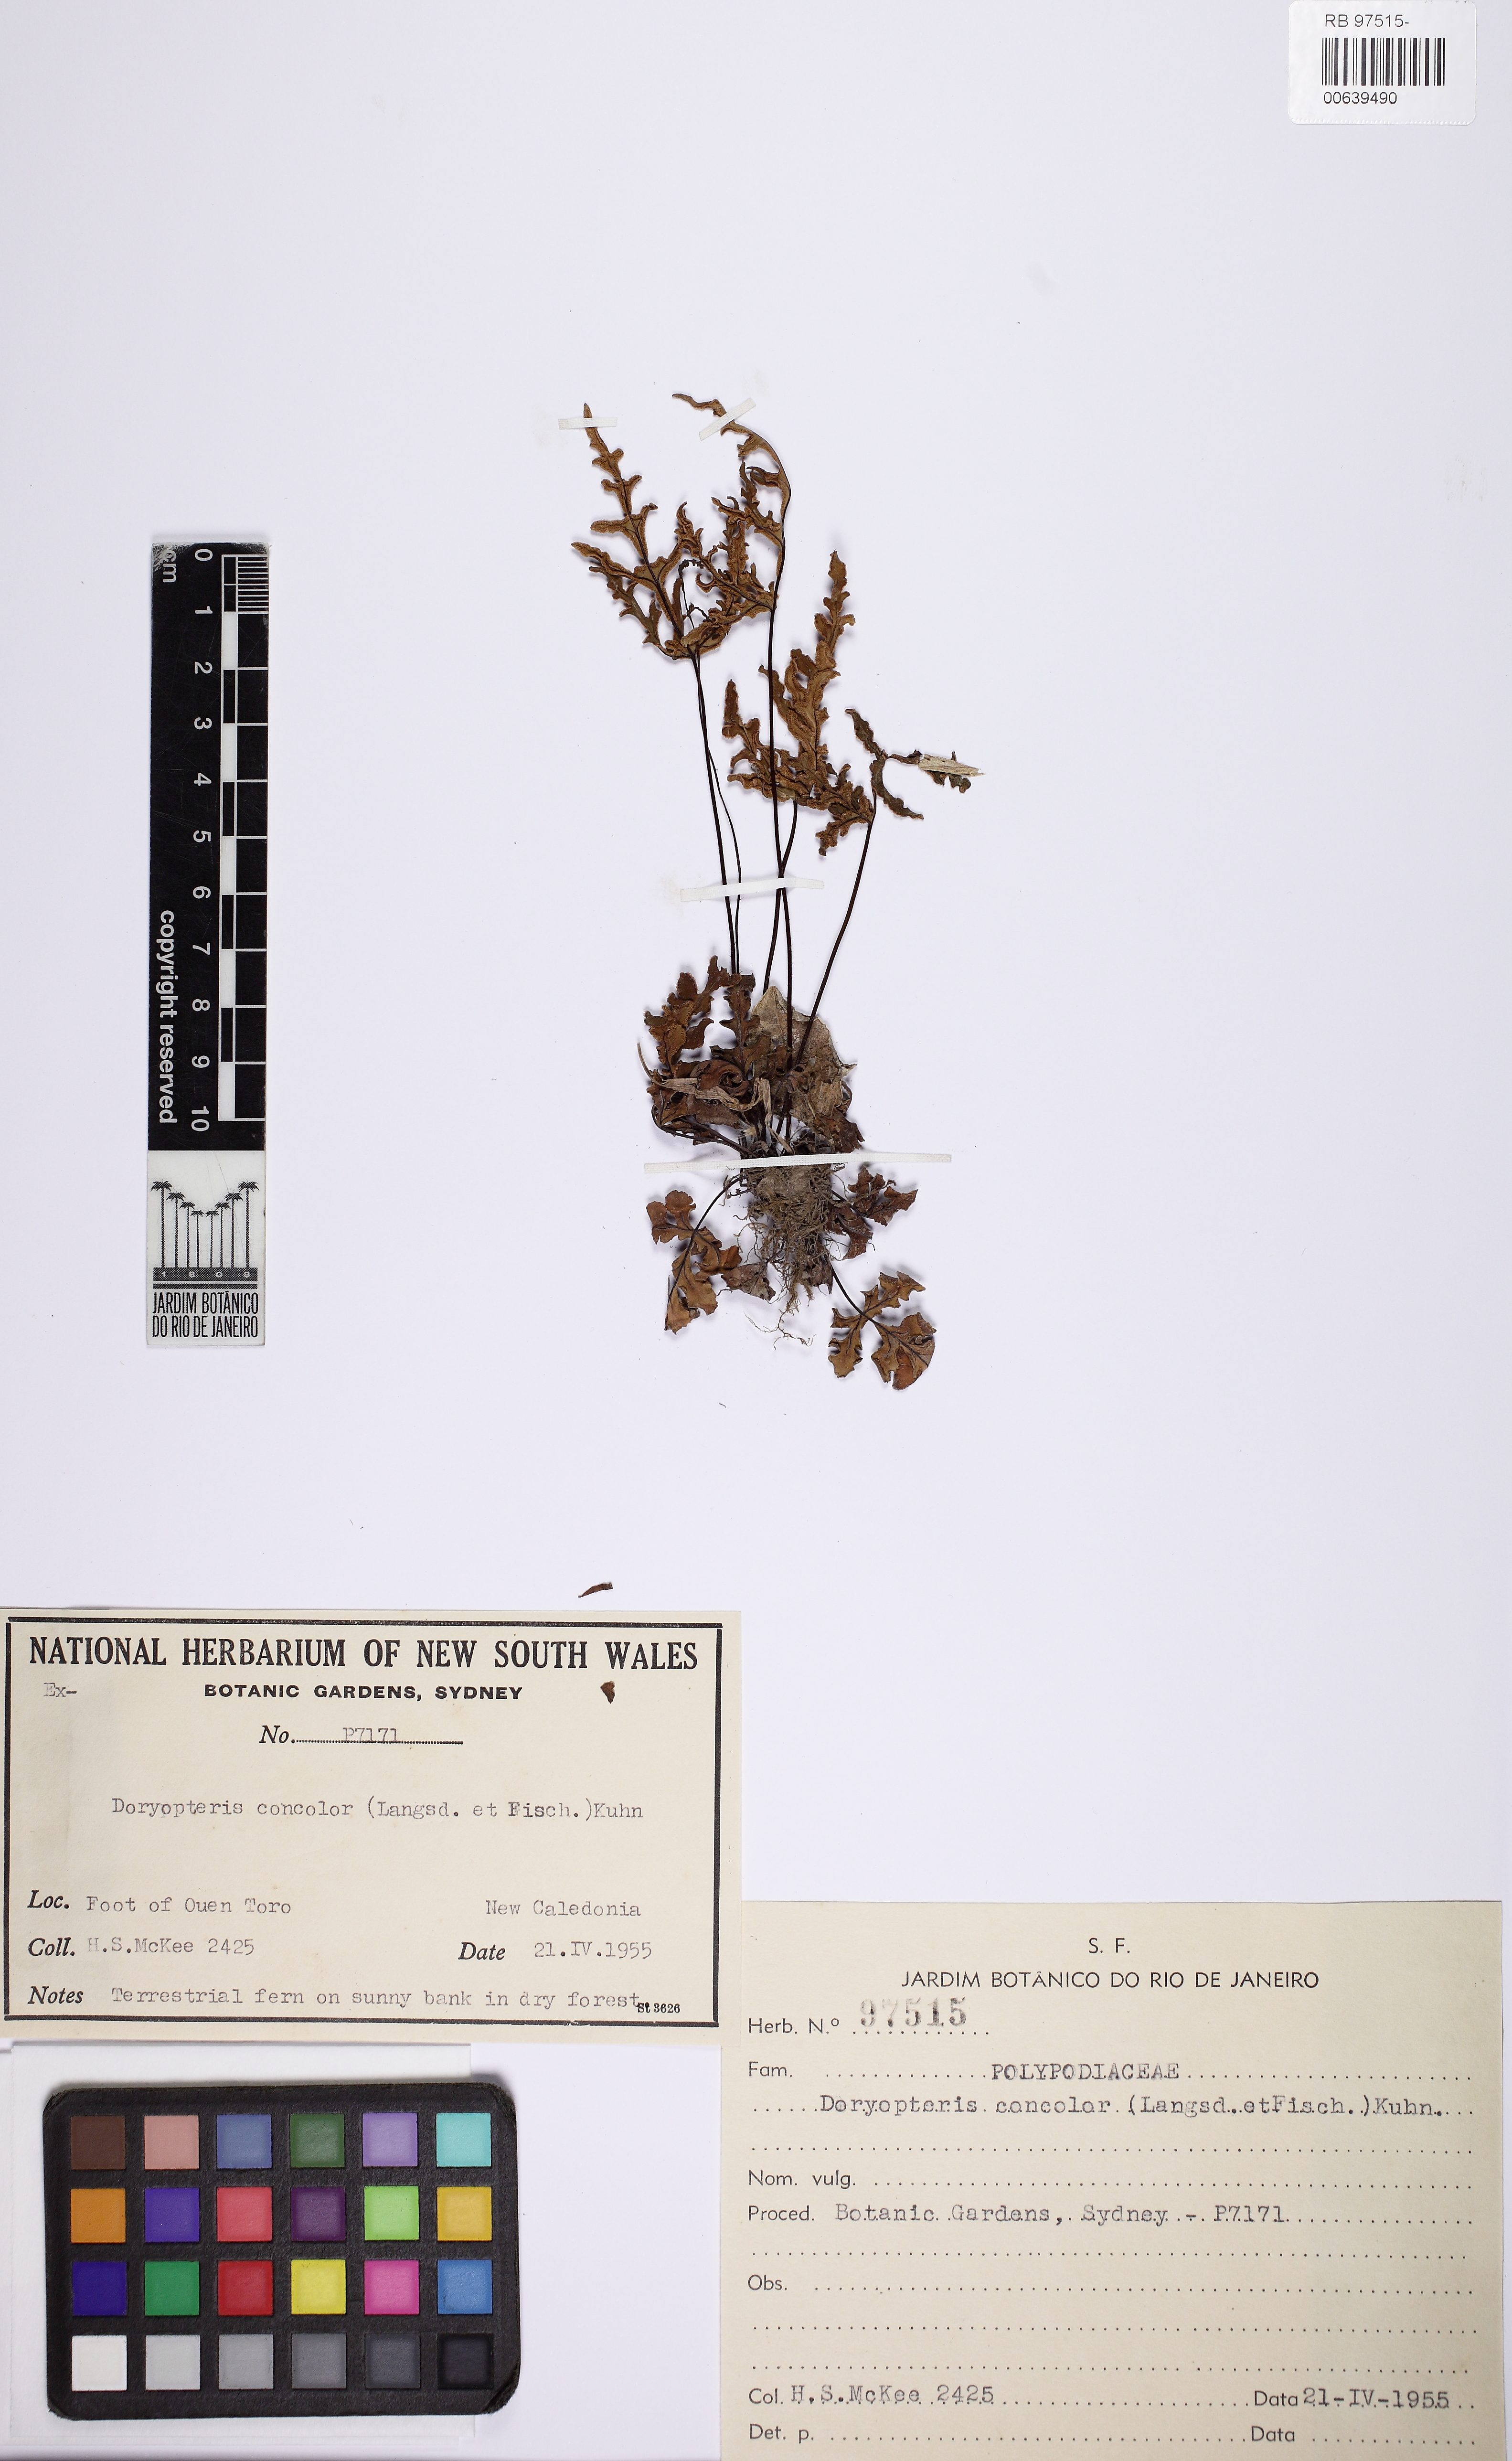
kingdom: Plantae
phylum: Tracheophyta
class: Polypodiopsida
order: Polypodiales
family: Pteridaceae
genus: Doryopteris
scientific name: Doryopteris concolor
